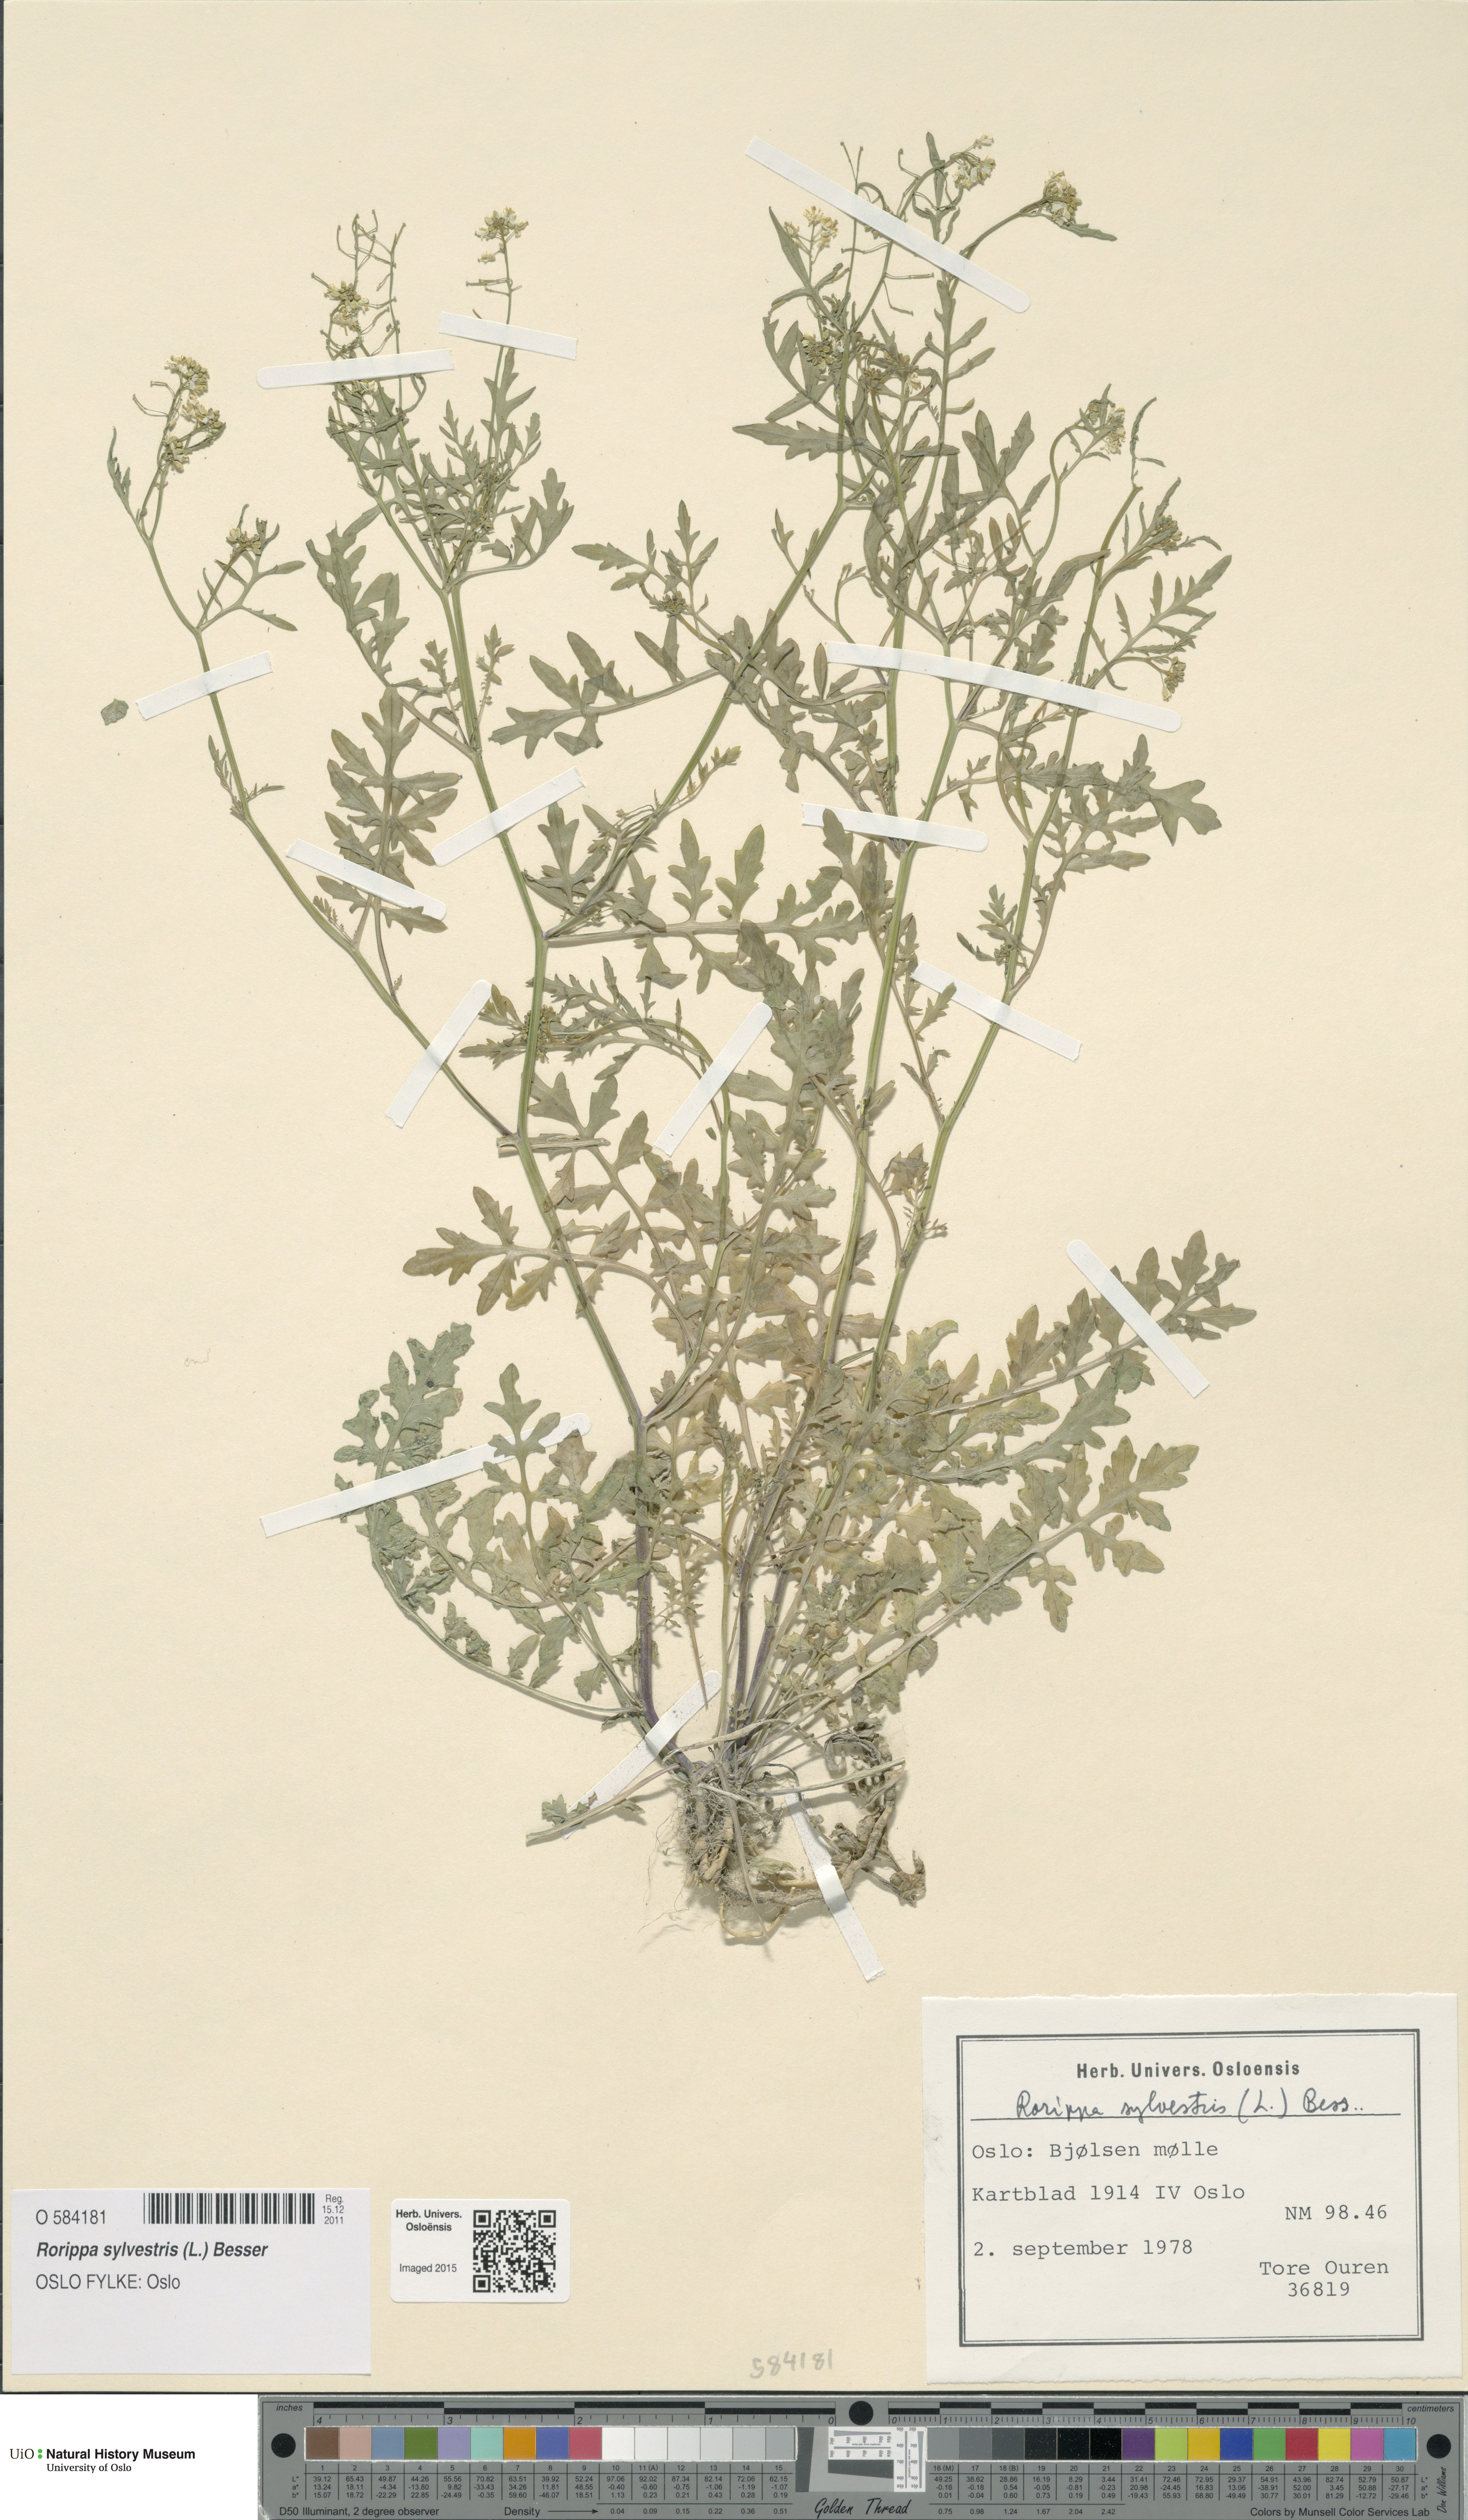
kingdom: Plantae
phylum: Tracheophyta
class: Magnoliopsida
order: Brassicales
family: Brassicaceae
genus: Rorippa
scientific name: Rorippa sylvestris
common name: Creeping yellowcress
